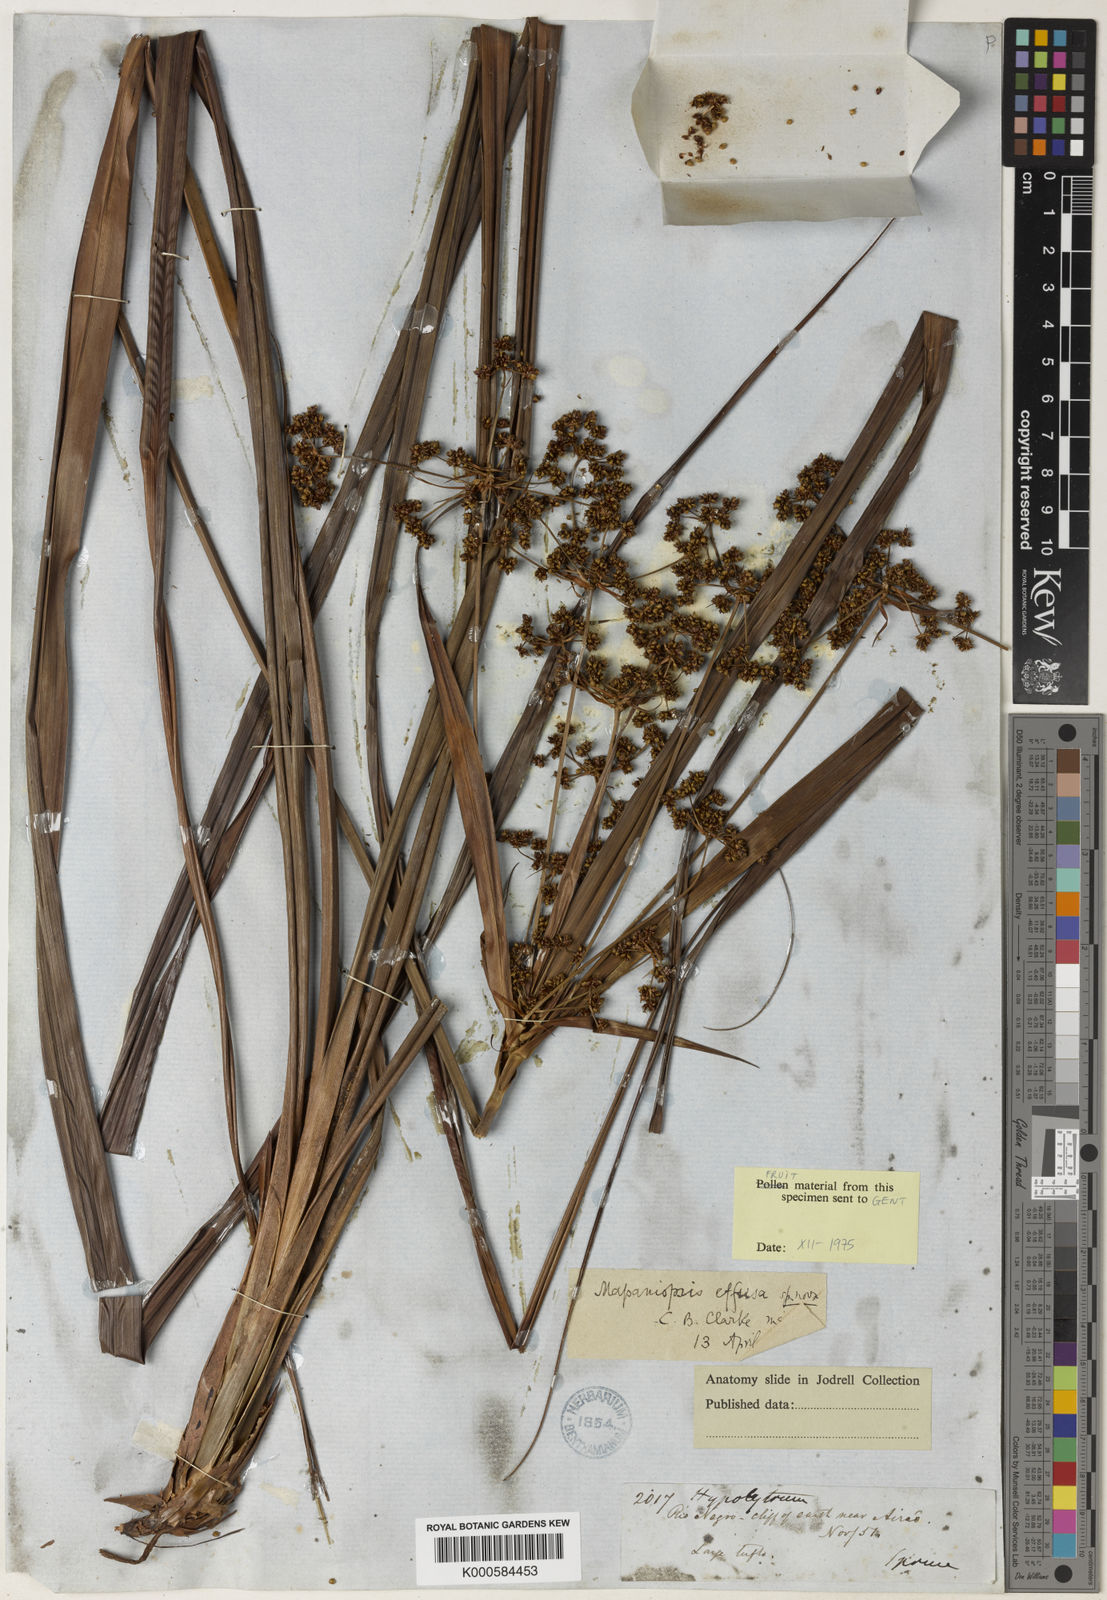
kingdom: Plantae
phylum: Tracheophyta
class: Liliopsida
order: Poales
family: Cyperaceae
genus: Mapania
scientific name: Mapania effusa
